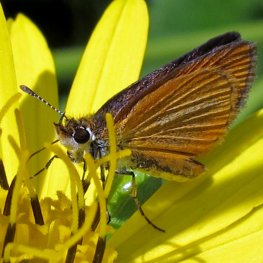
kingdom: Animalia
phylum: Arthropoda
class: Insecta
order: Lepidoptera
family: Hesperiidae
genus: Ancyloxypha
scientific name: Ancyloxypha numitor
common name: Least Skipper
